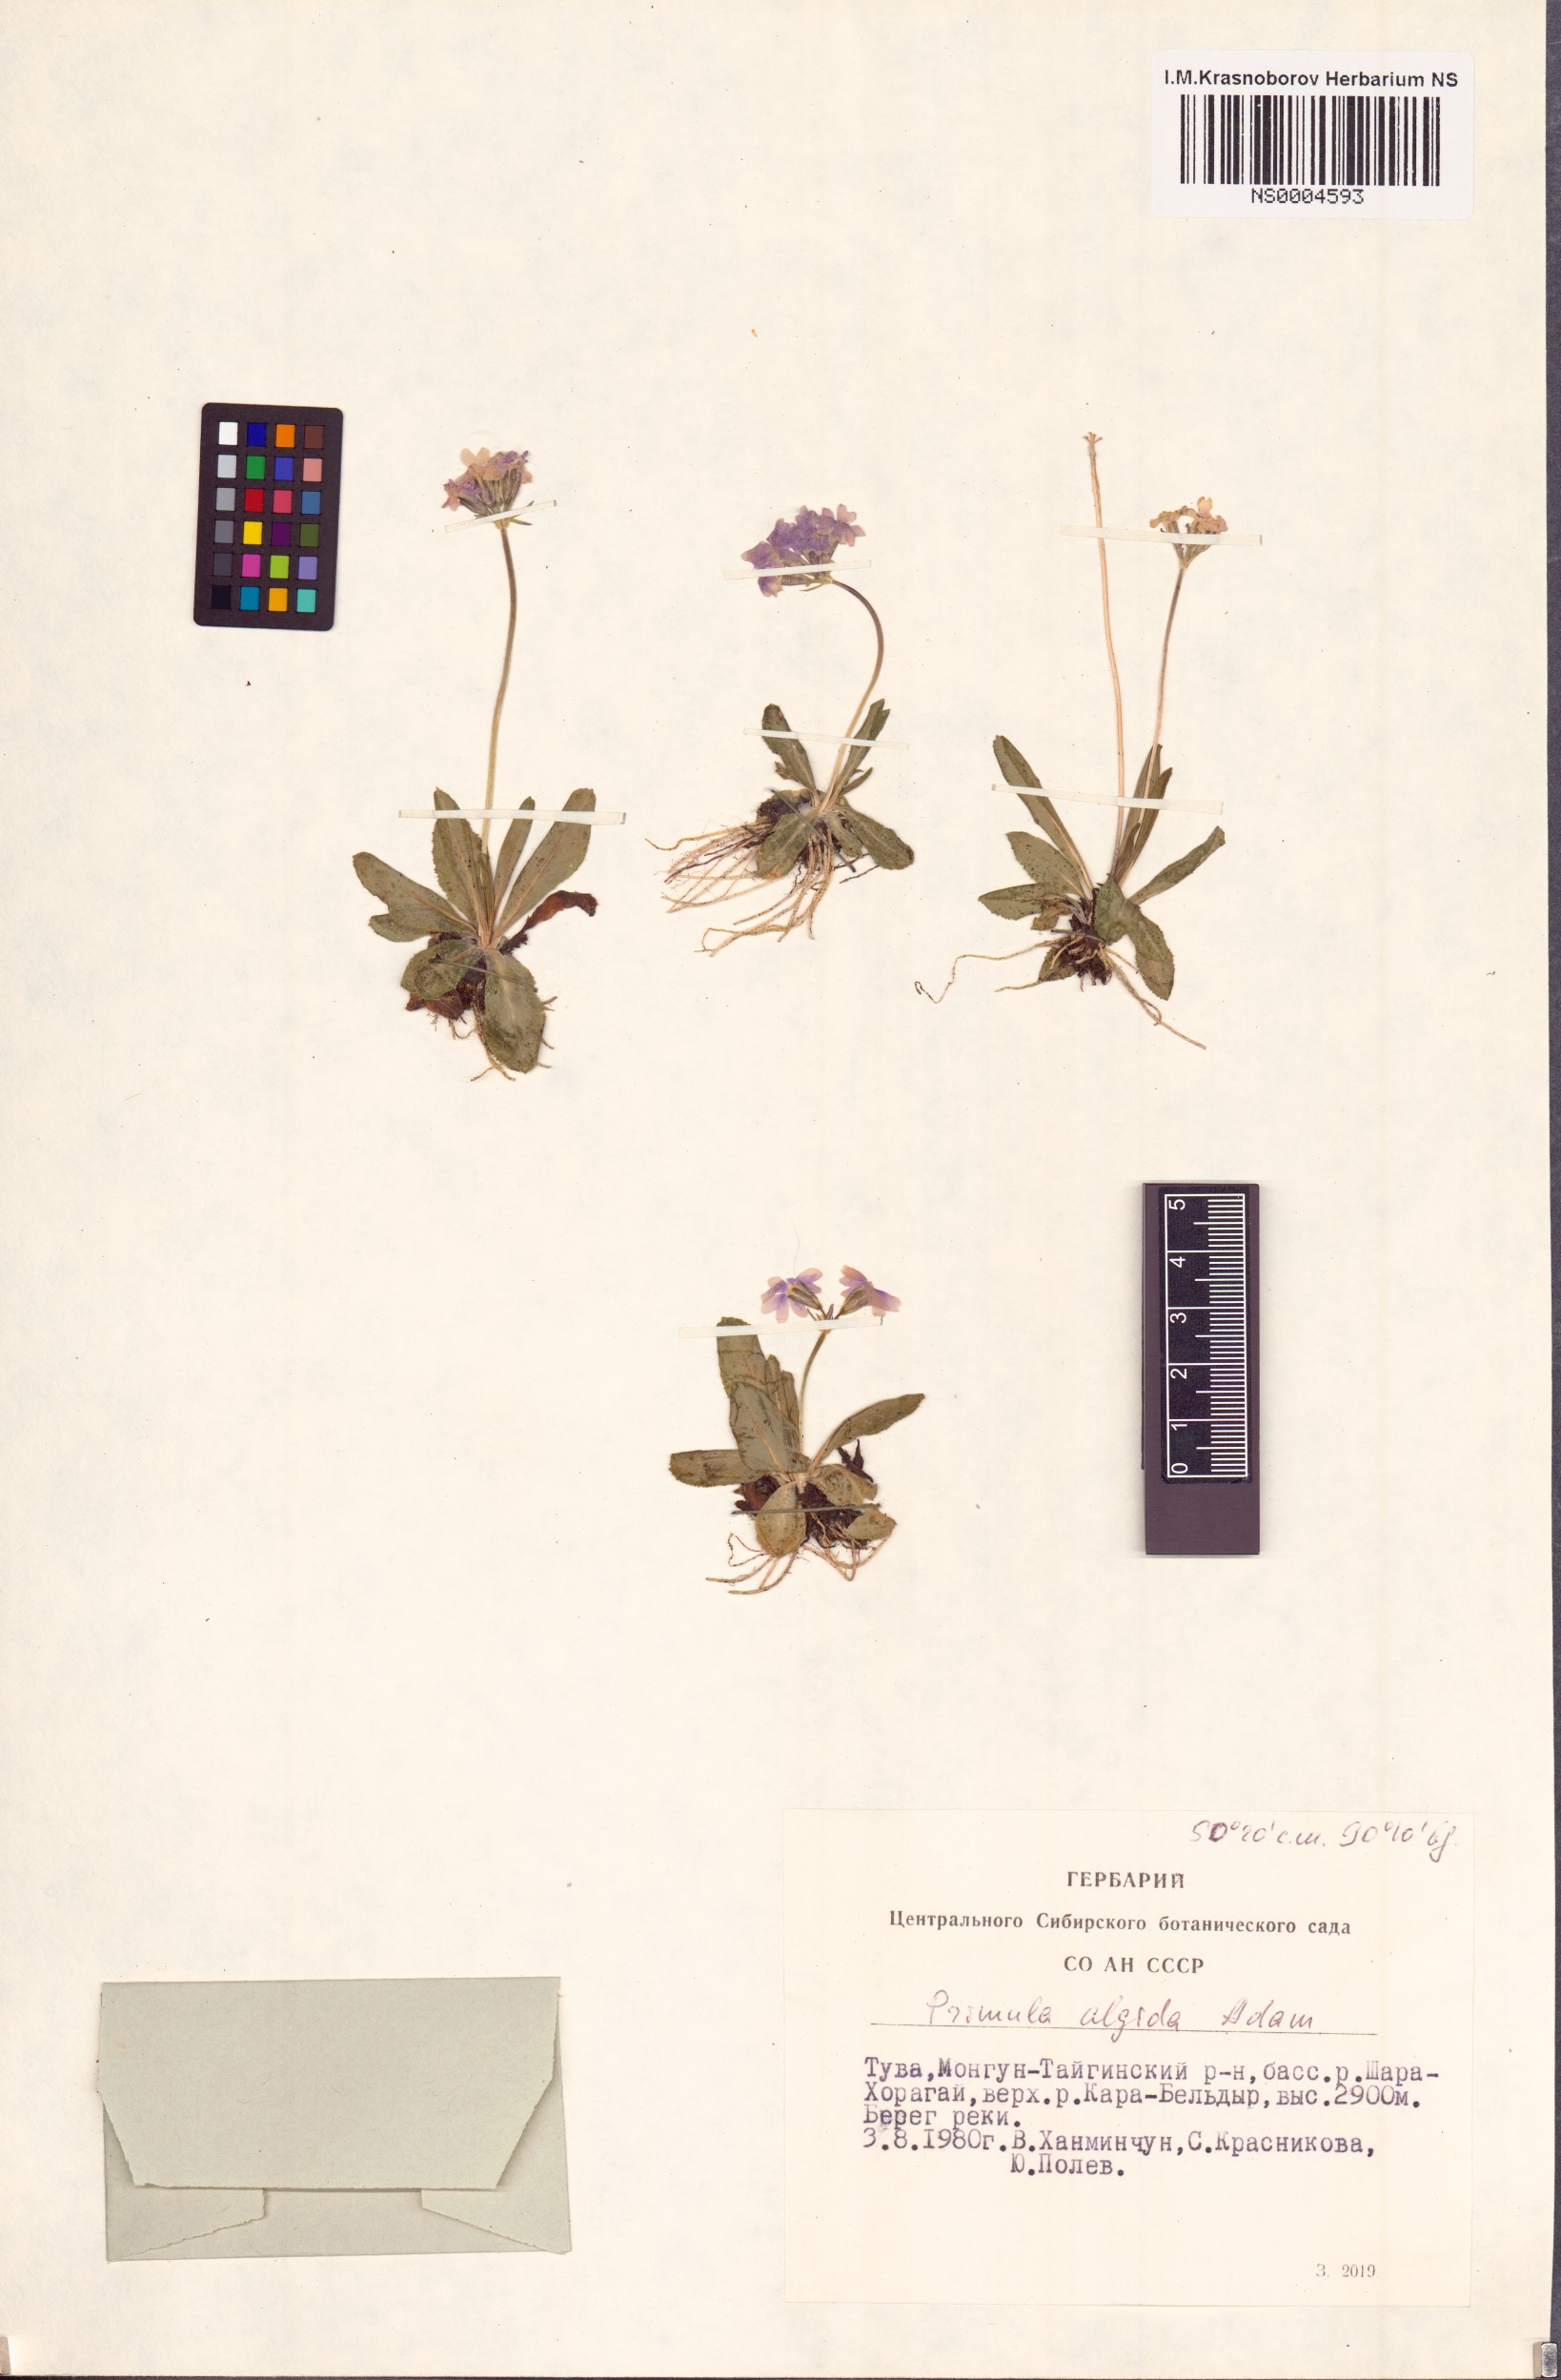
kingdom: Plantae
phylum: Tracheophyta
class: Magnoliopsida
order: Ericales
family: Primulaceae
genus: Primula
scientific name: Primula algida
